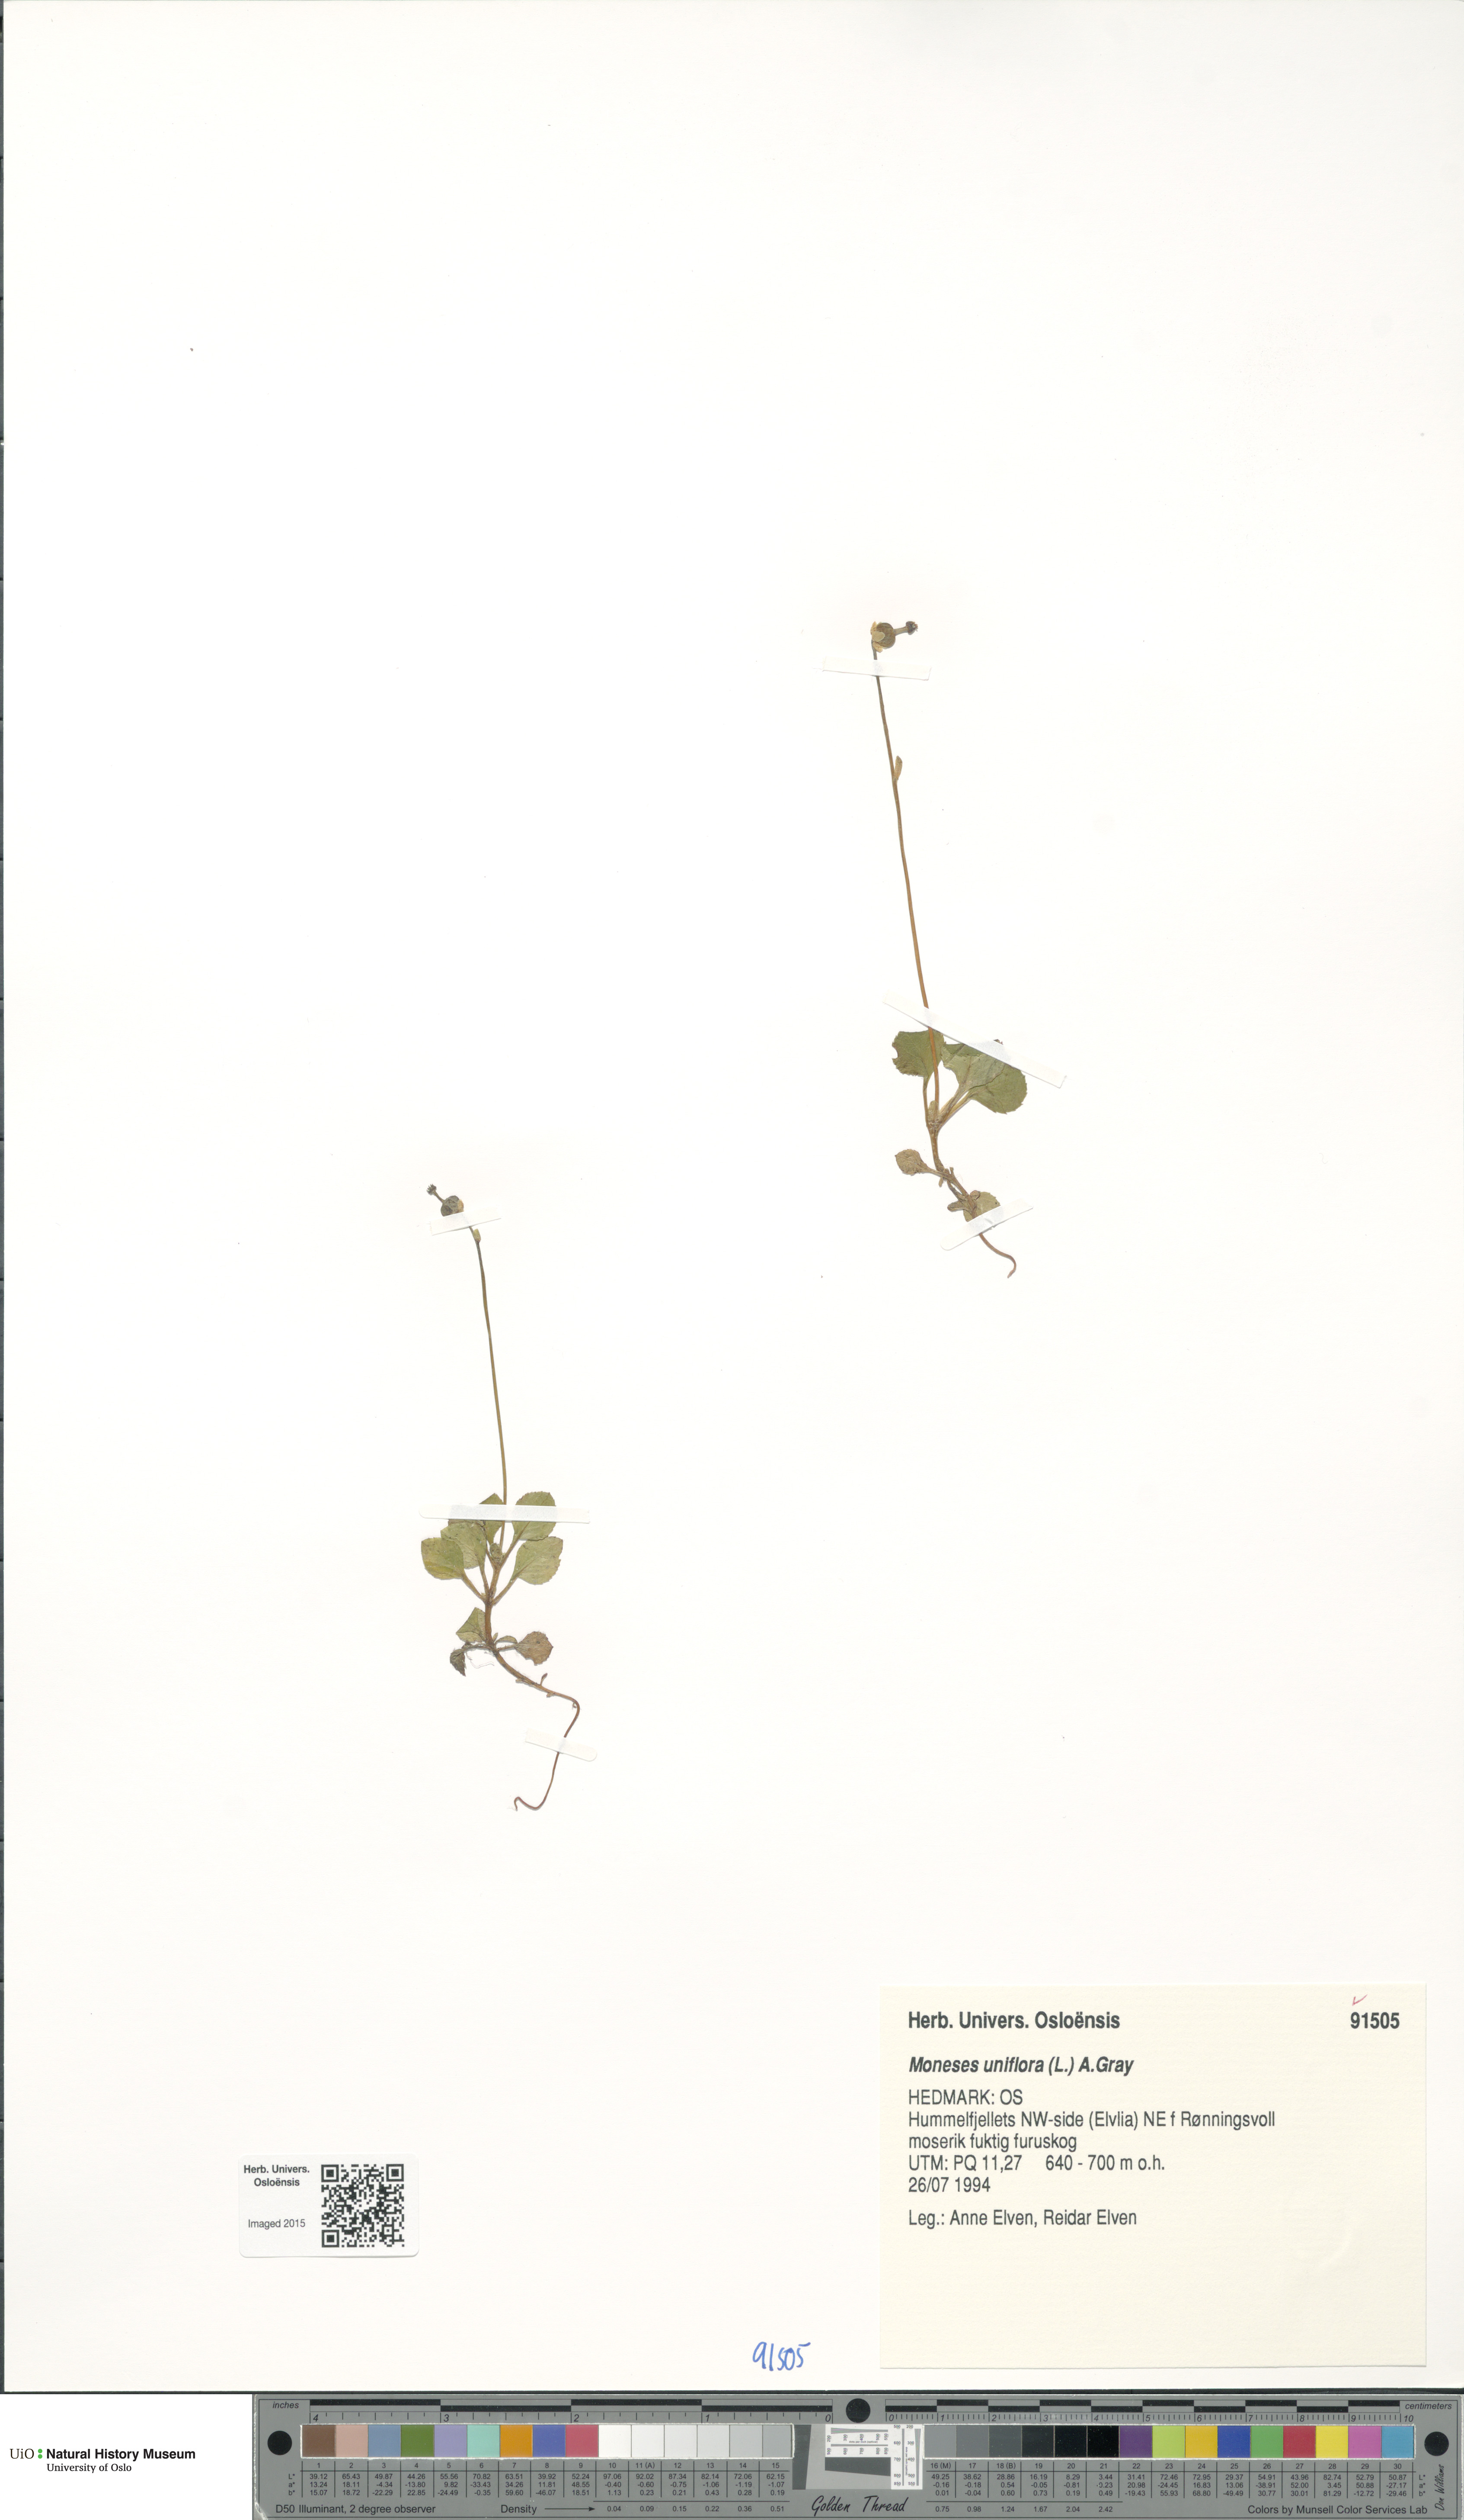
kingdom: Plantae
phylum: Tracheophyta
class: Magnoliopsida
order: Ericales
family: Ericaceae
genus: Moneses
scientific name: Moneses uniflora
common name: One-flowered wintergreen
